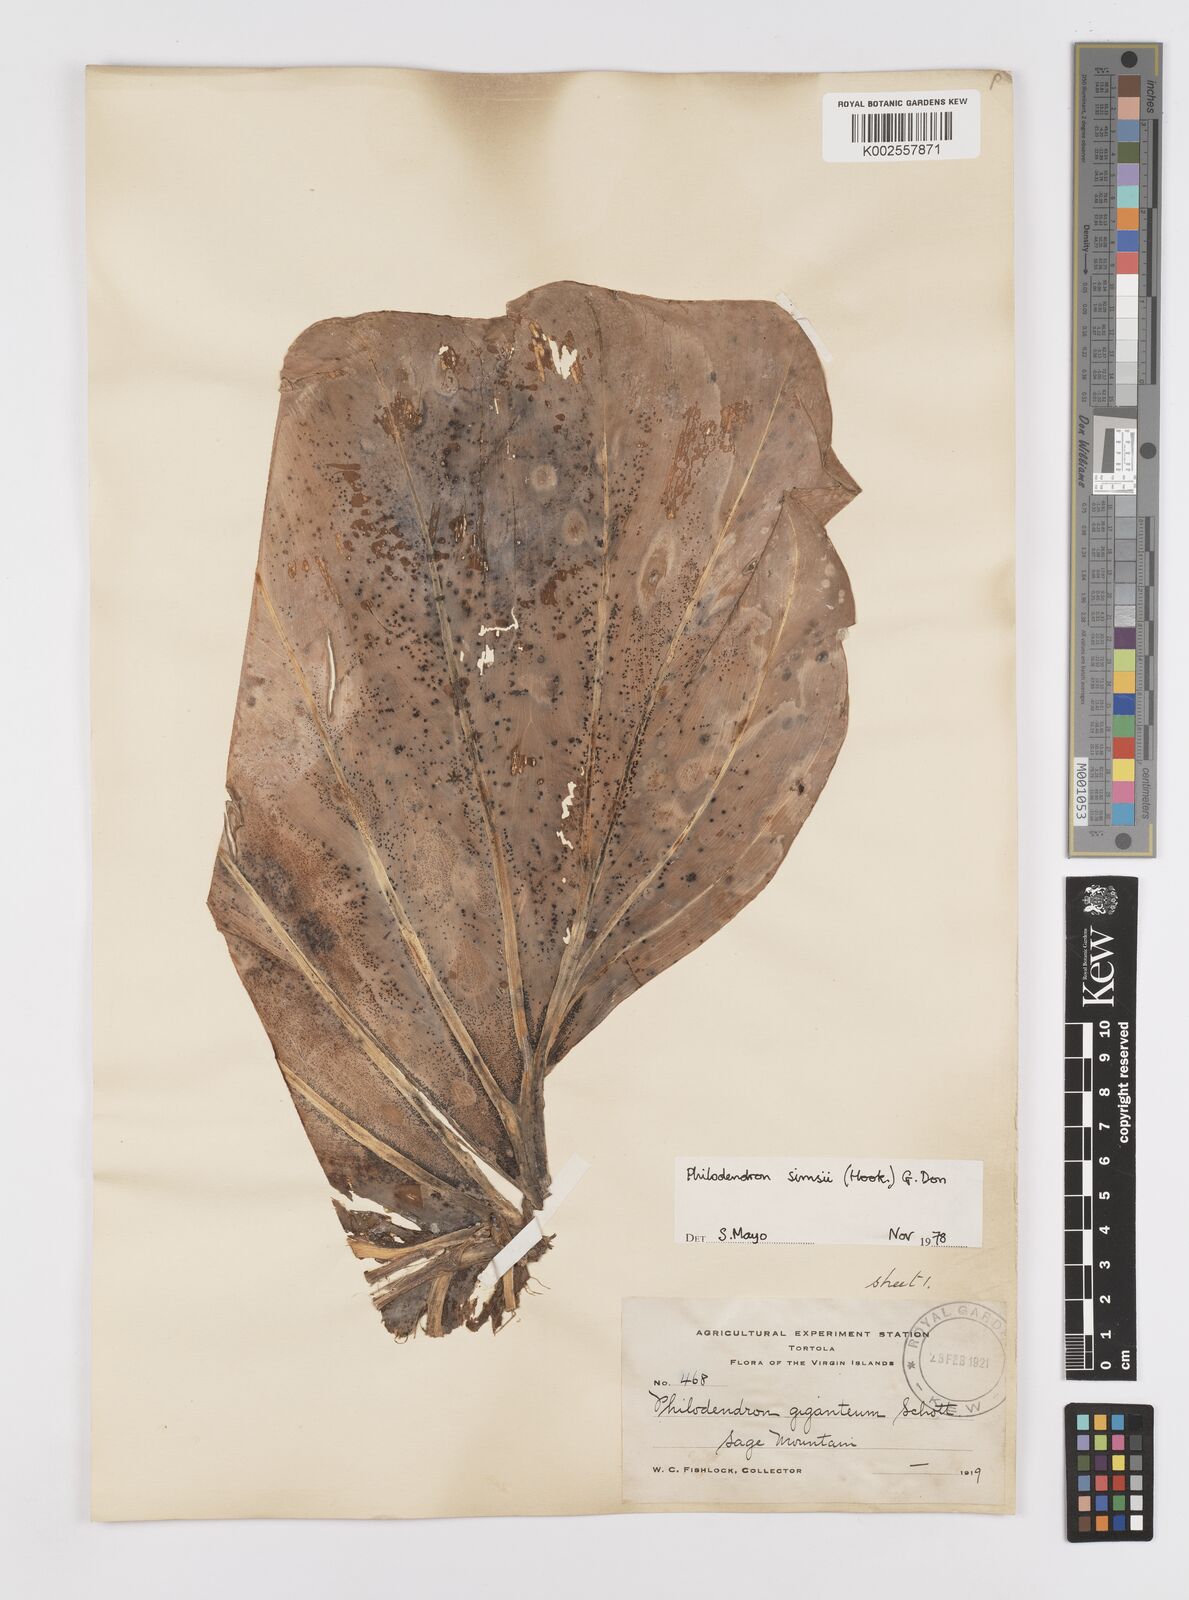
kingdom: Plantae
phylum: Tracheophyta
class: Liliopsida
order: Alismatales
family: Araceae
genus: Philodendron
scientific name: Philodendron
